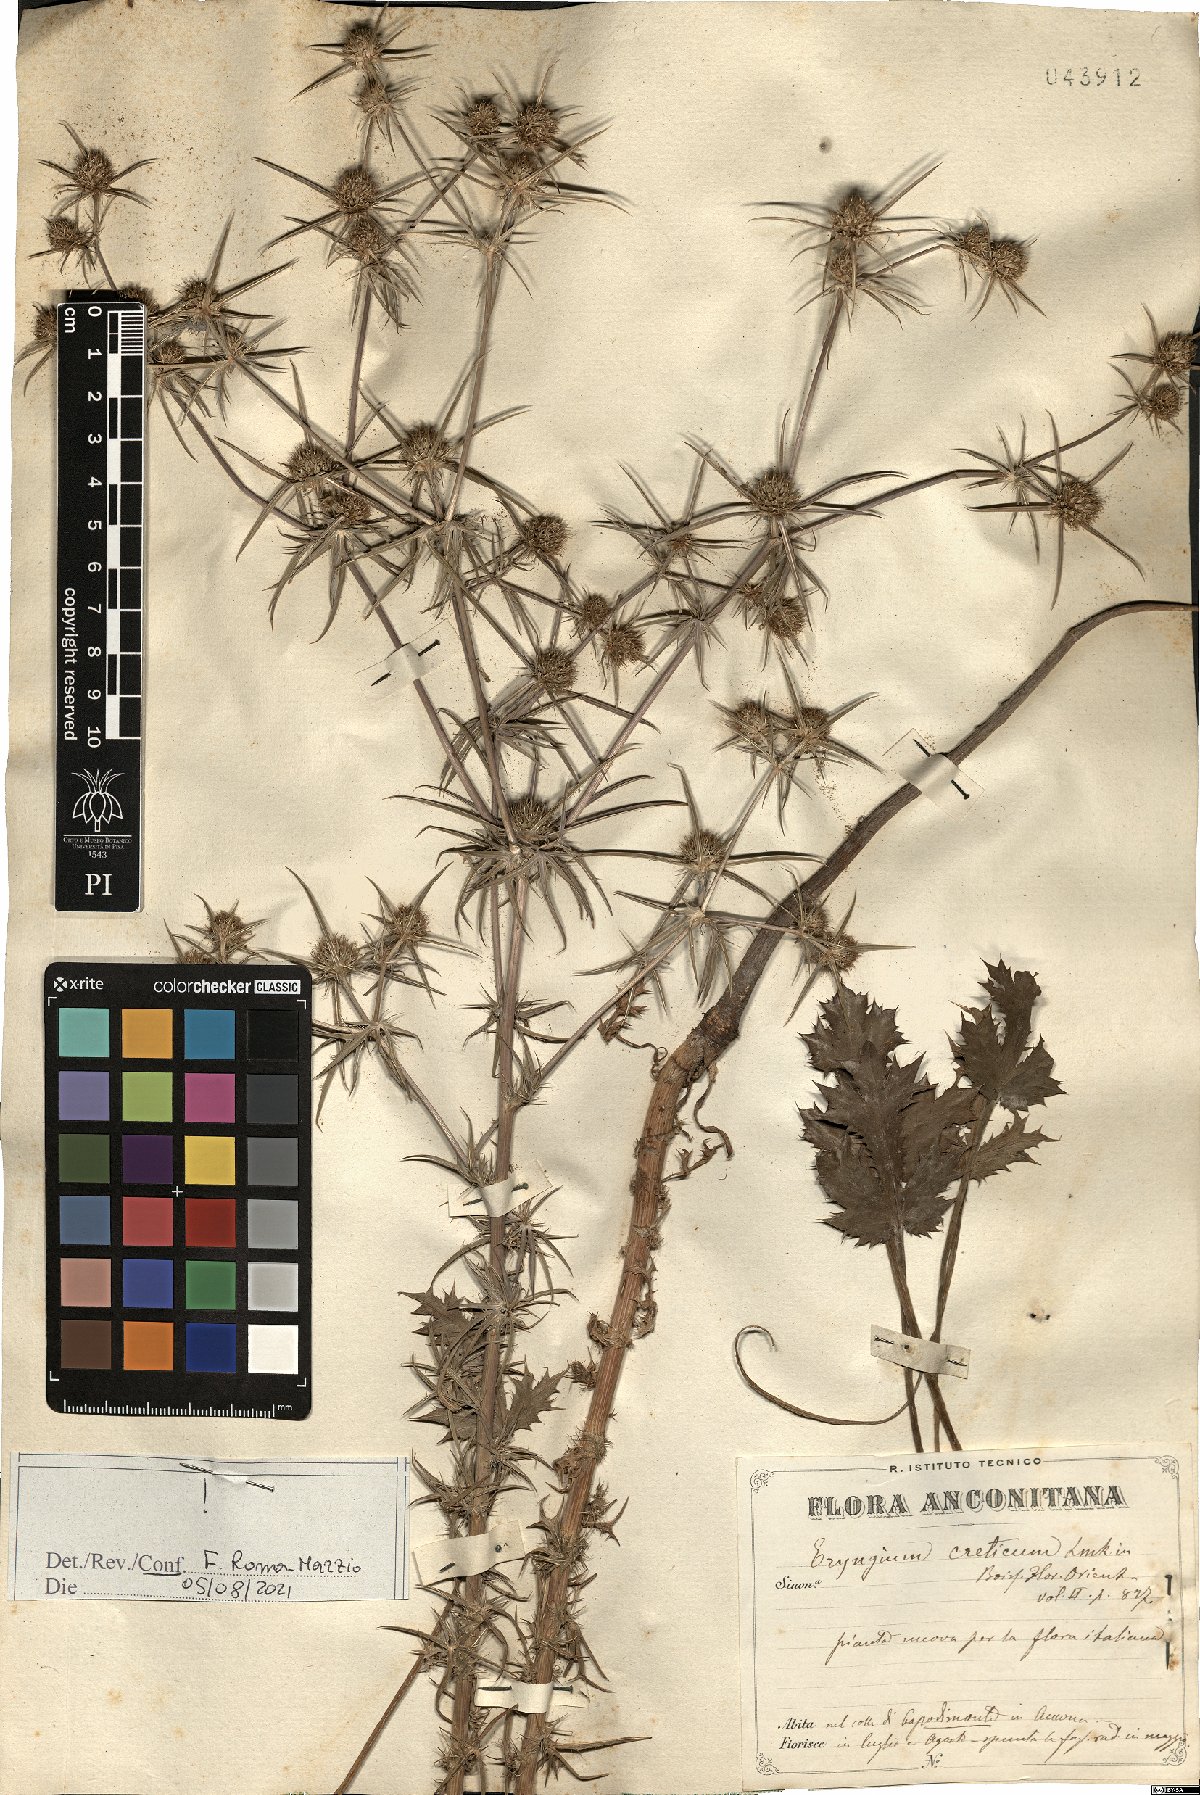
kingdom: Plantae
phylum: Tracheophyta
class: Magnoliopsida
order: Apiales
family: Apiaceae
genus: Eryngium
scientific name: Eryngium creticum
